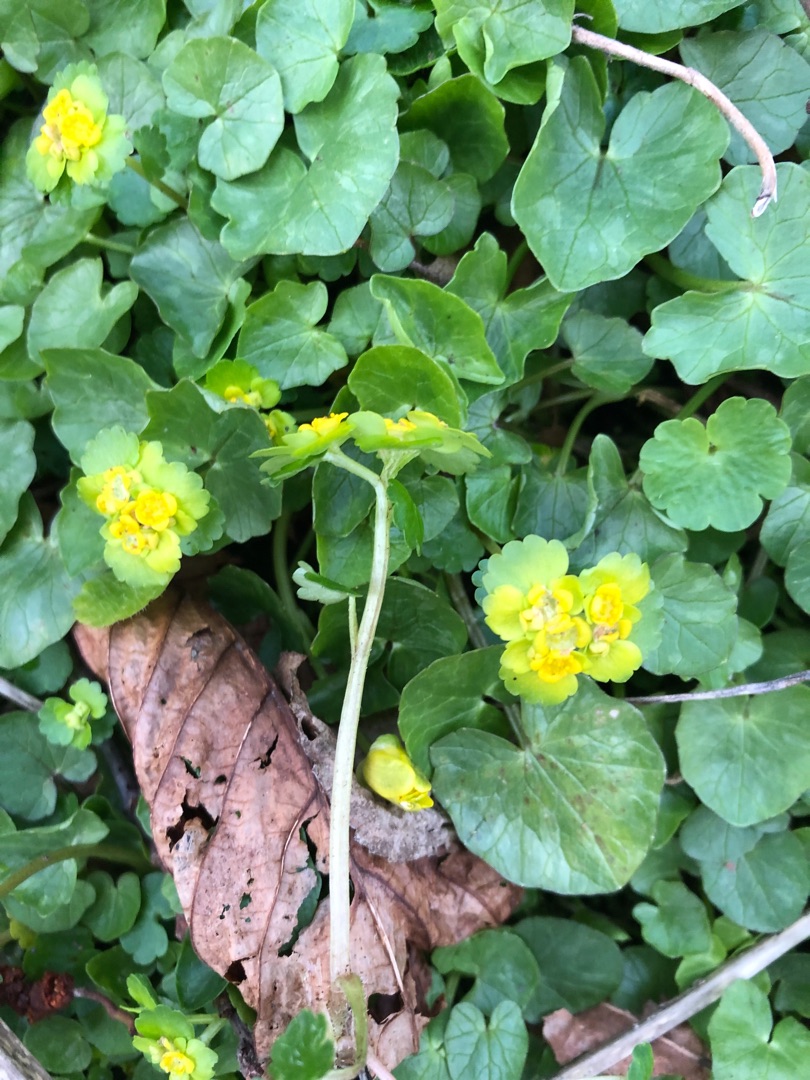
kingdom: Plantae
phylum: Tracheophyta
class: Magnoliopsida
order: Saxifragales
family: Saxifragaceae
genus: Chrysosplenium
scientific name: Chrysosplenium alternifolium
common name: Almindelig milturt
